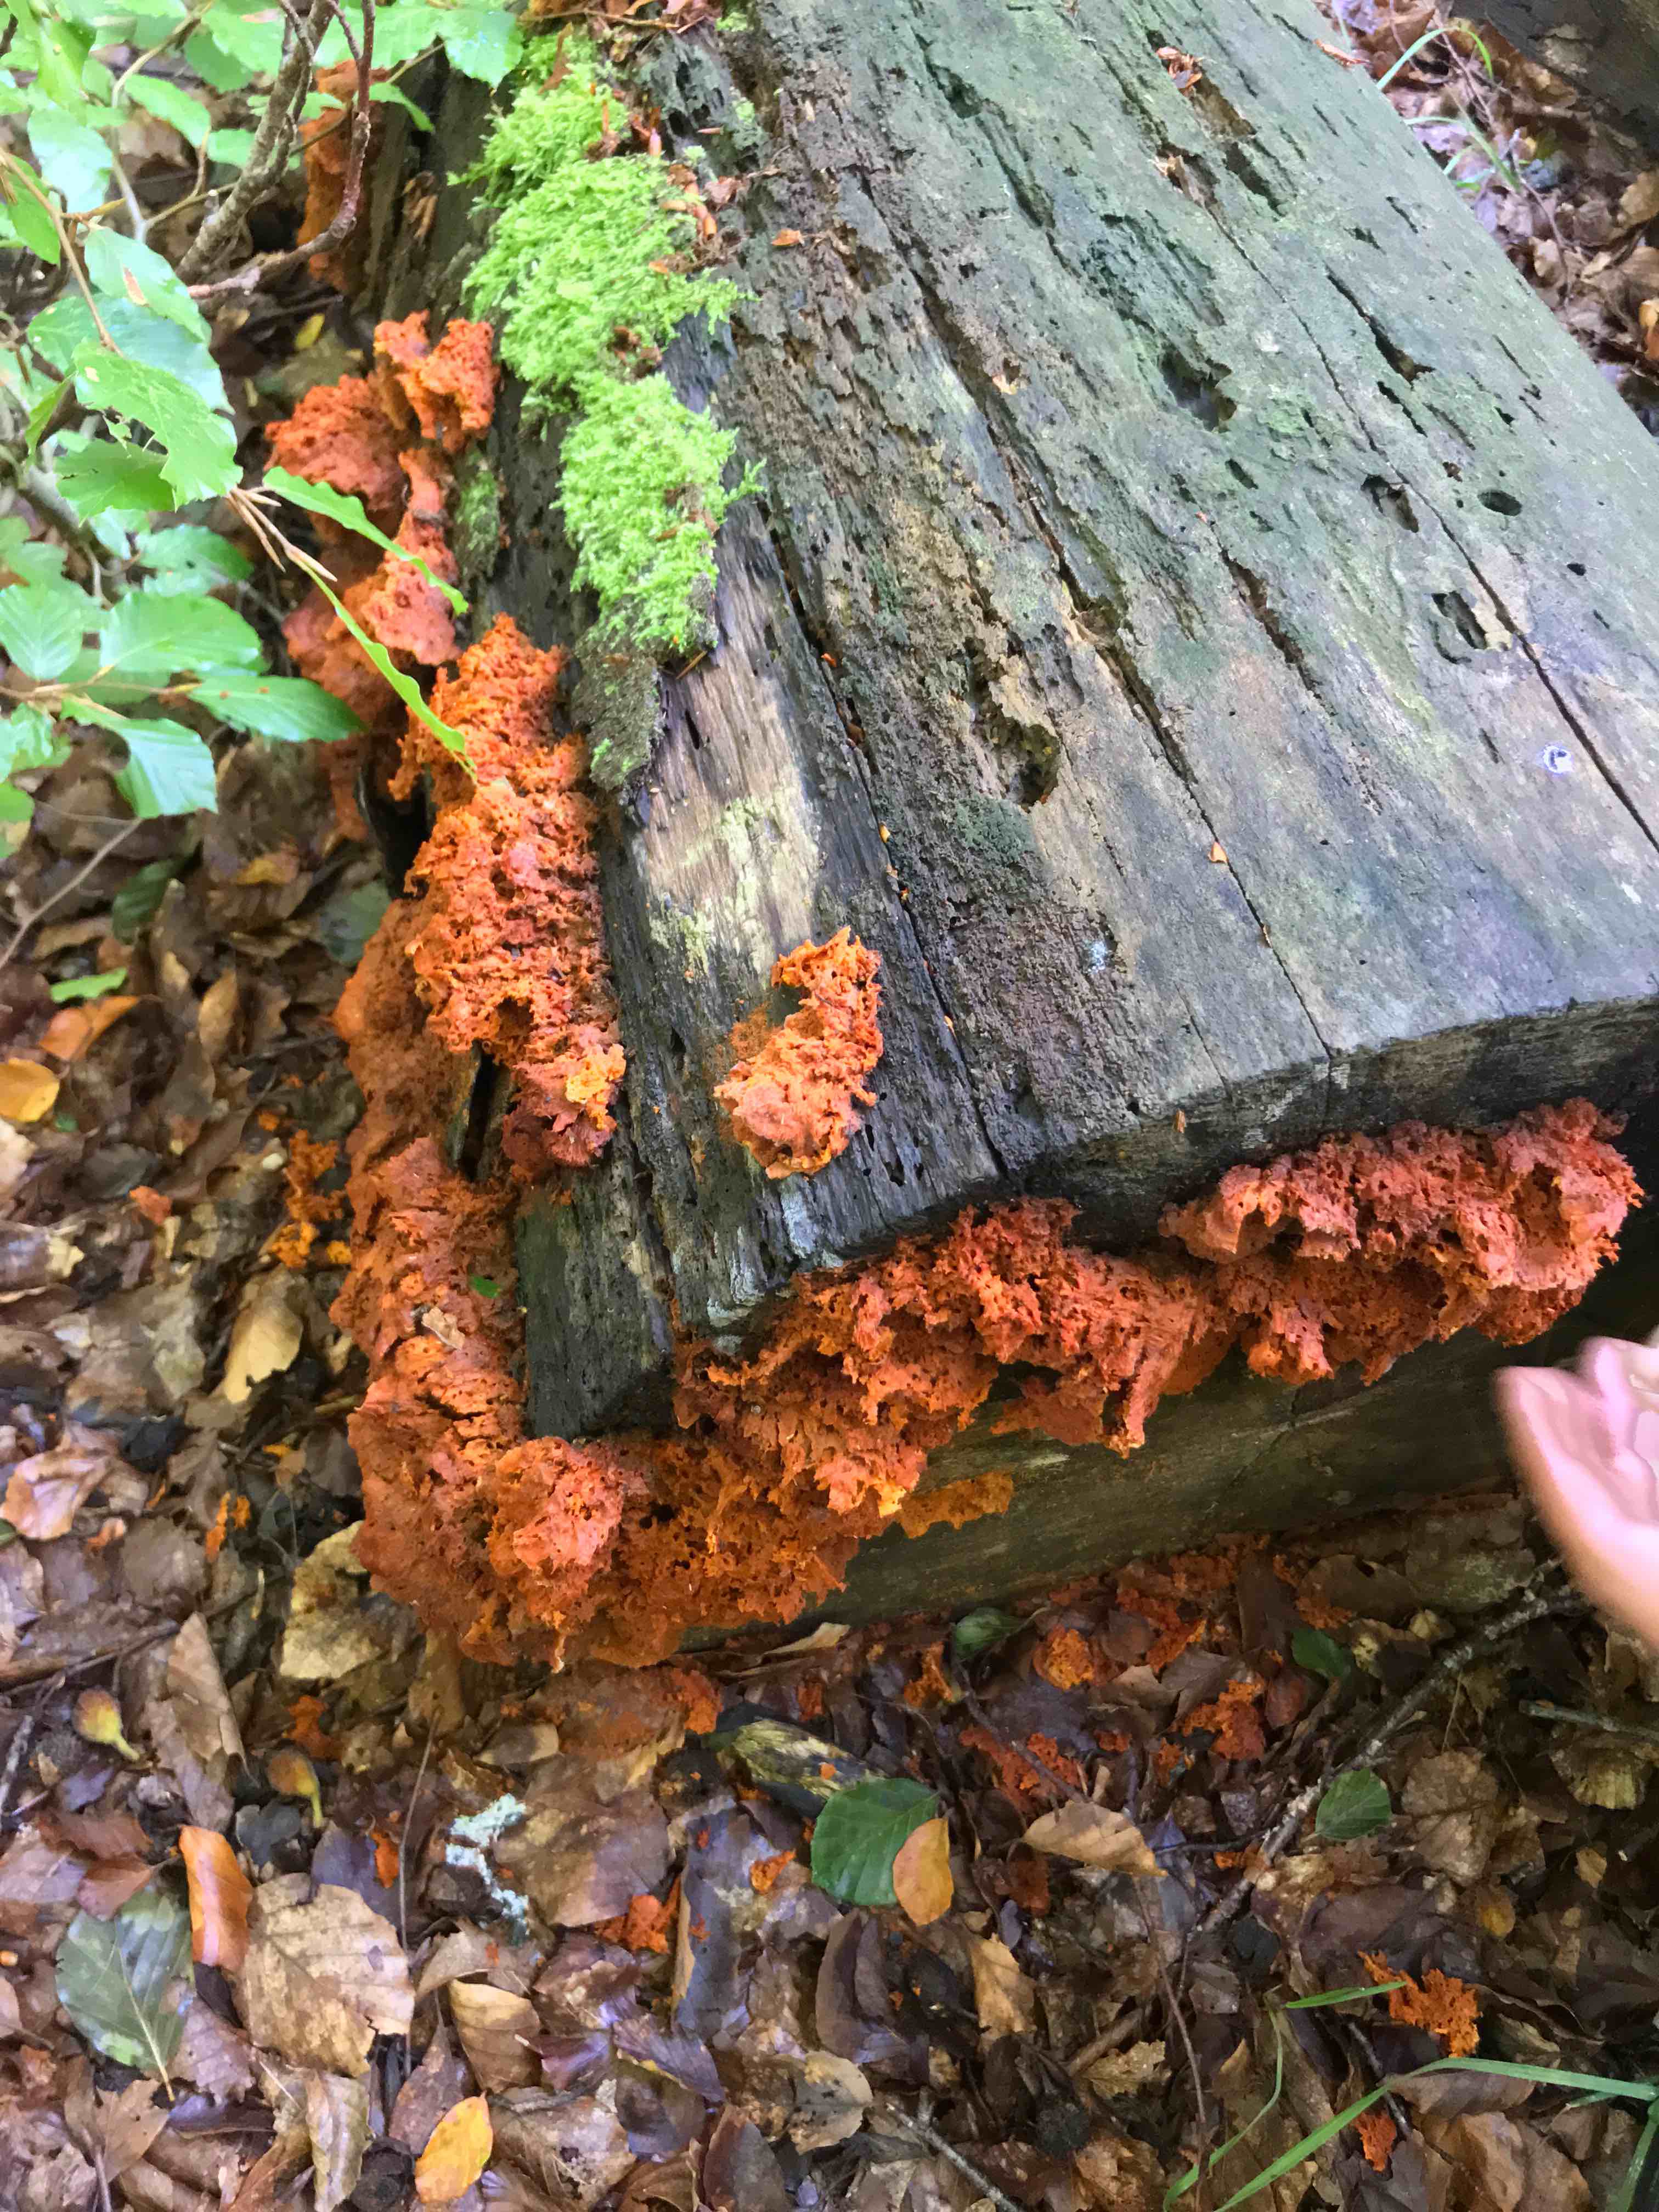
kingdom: Fungi
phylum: Basidiomycota
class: Agaricomycetes
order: Polyporales
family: Pycnoporellaceae
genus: Pycnoporellus
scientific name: Pycnoporellus fulgens
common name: flammeporesvamp
